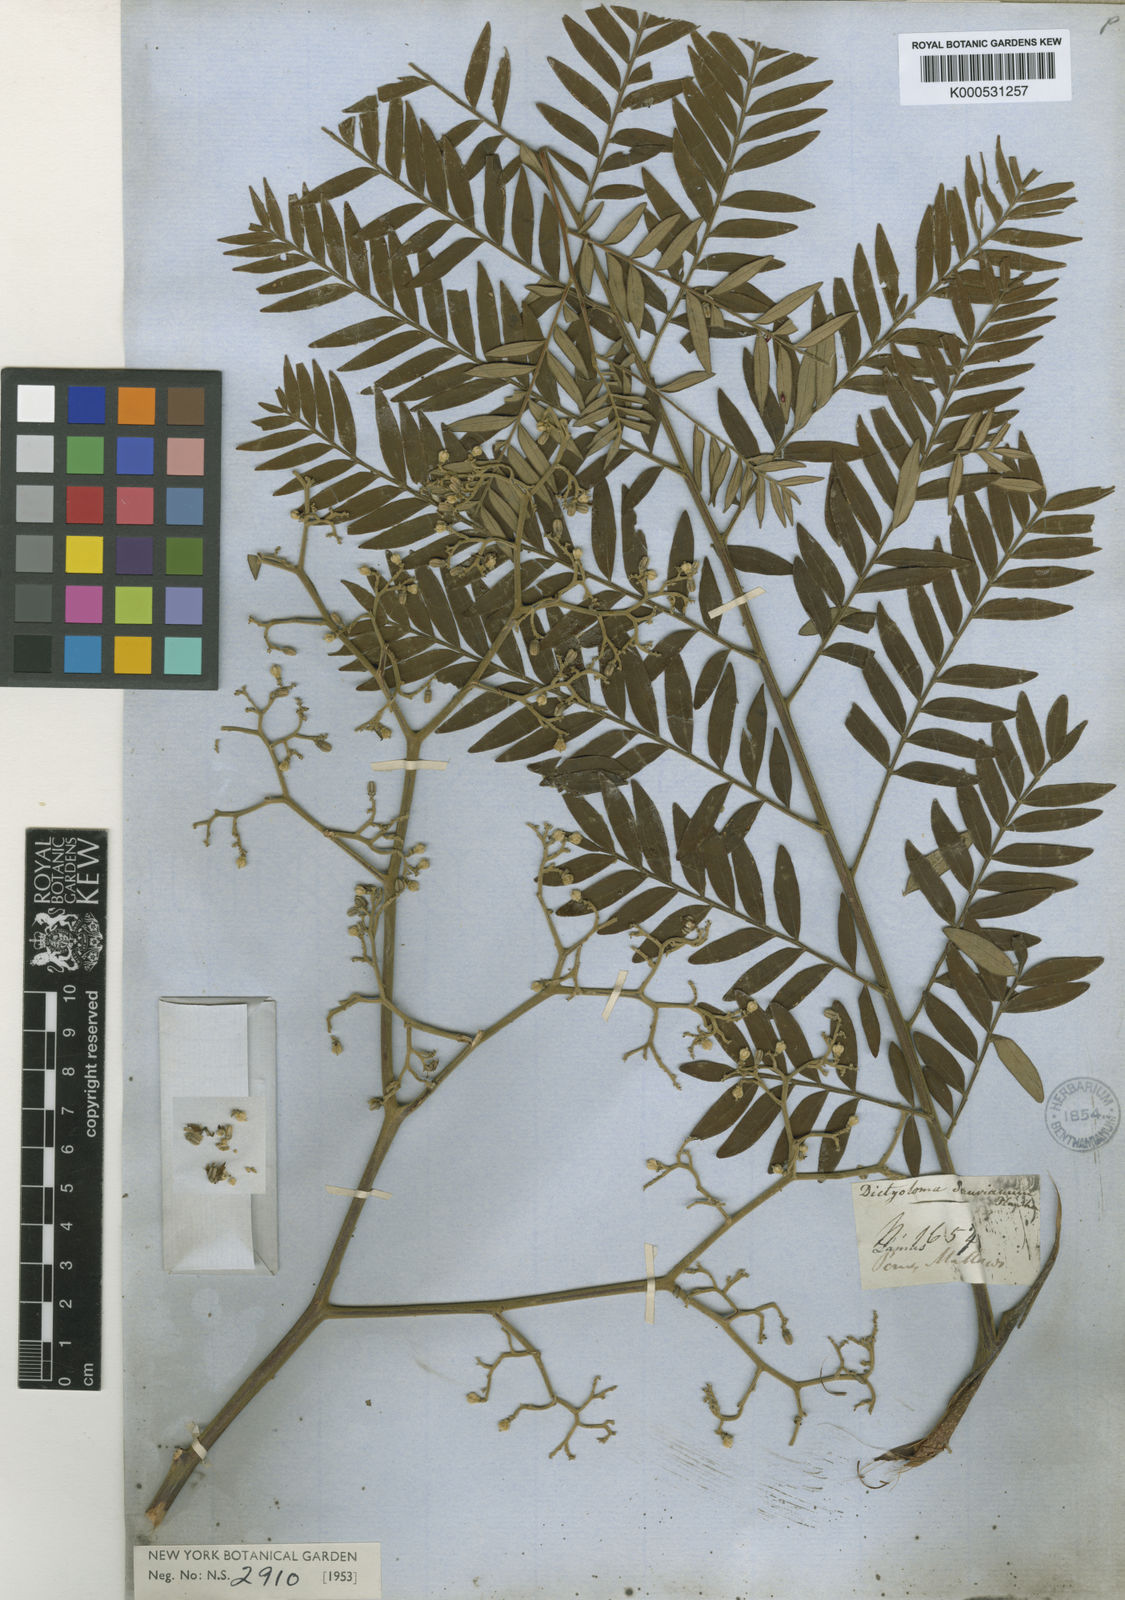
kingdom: Plantae
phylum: Tracheophyta
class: Magnoliopsida
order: Sapindales
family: Rutaceae
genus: Dictyoloma
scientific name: Dictyoloma vandellianum
